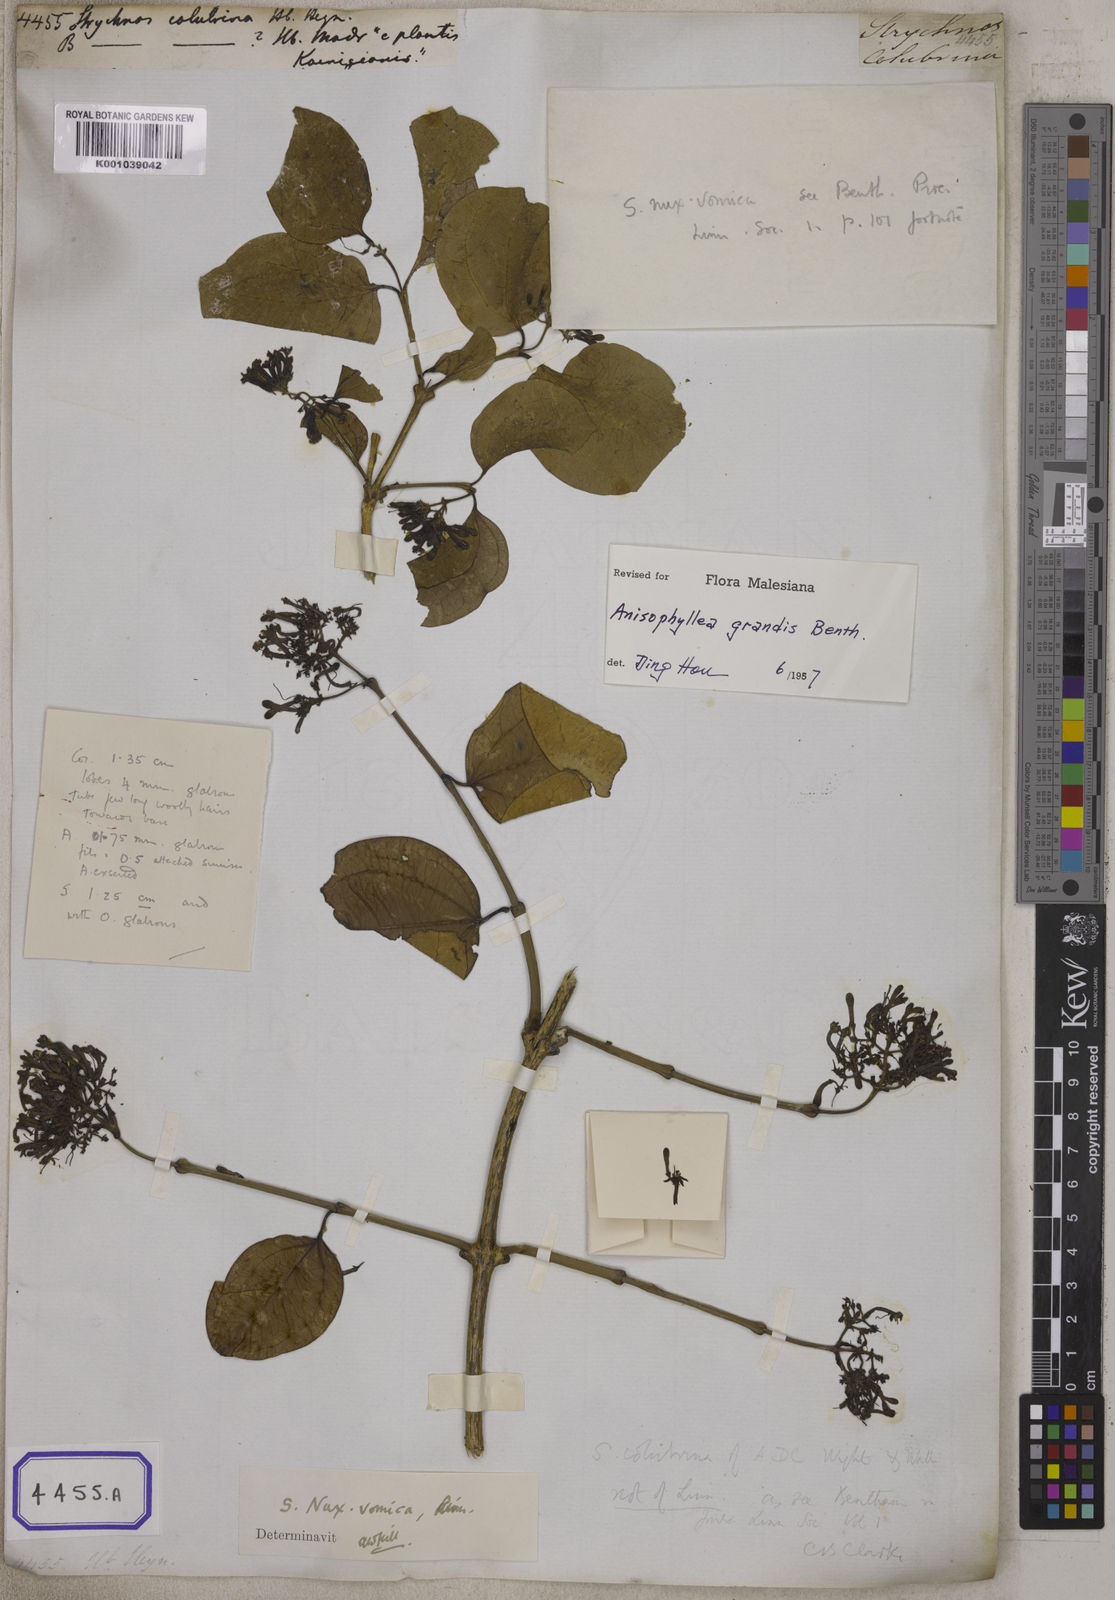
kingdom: Plantae
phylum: Tracheophyta
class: Magnoliopsida
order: Gentianales
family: Loganiaceae
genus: Strychnos
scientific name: Strychnos
